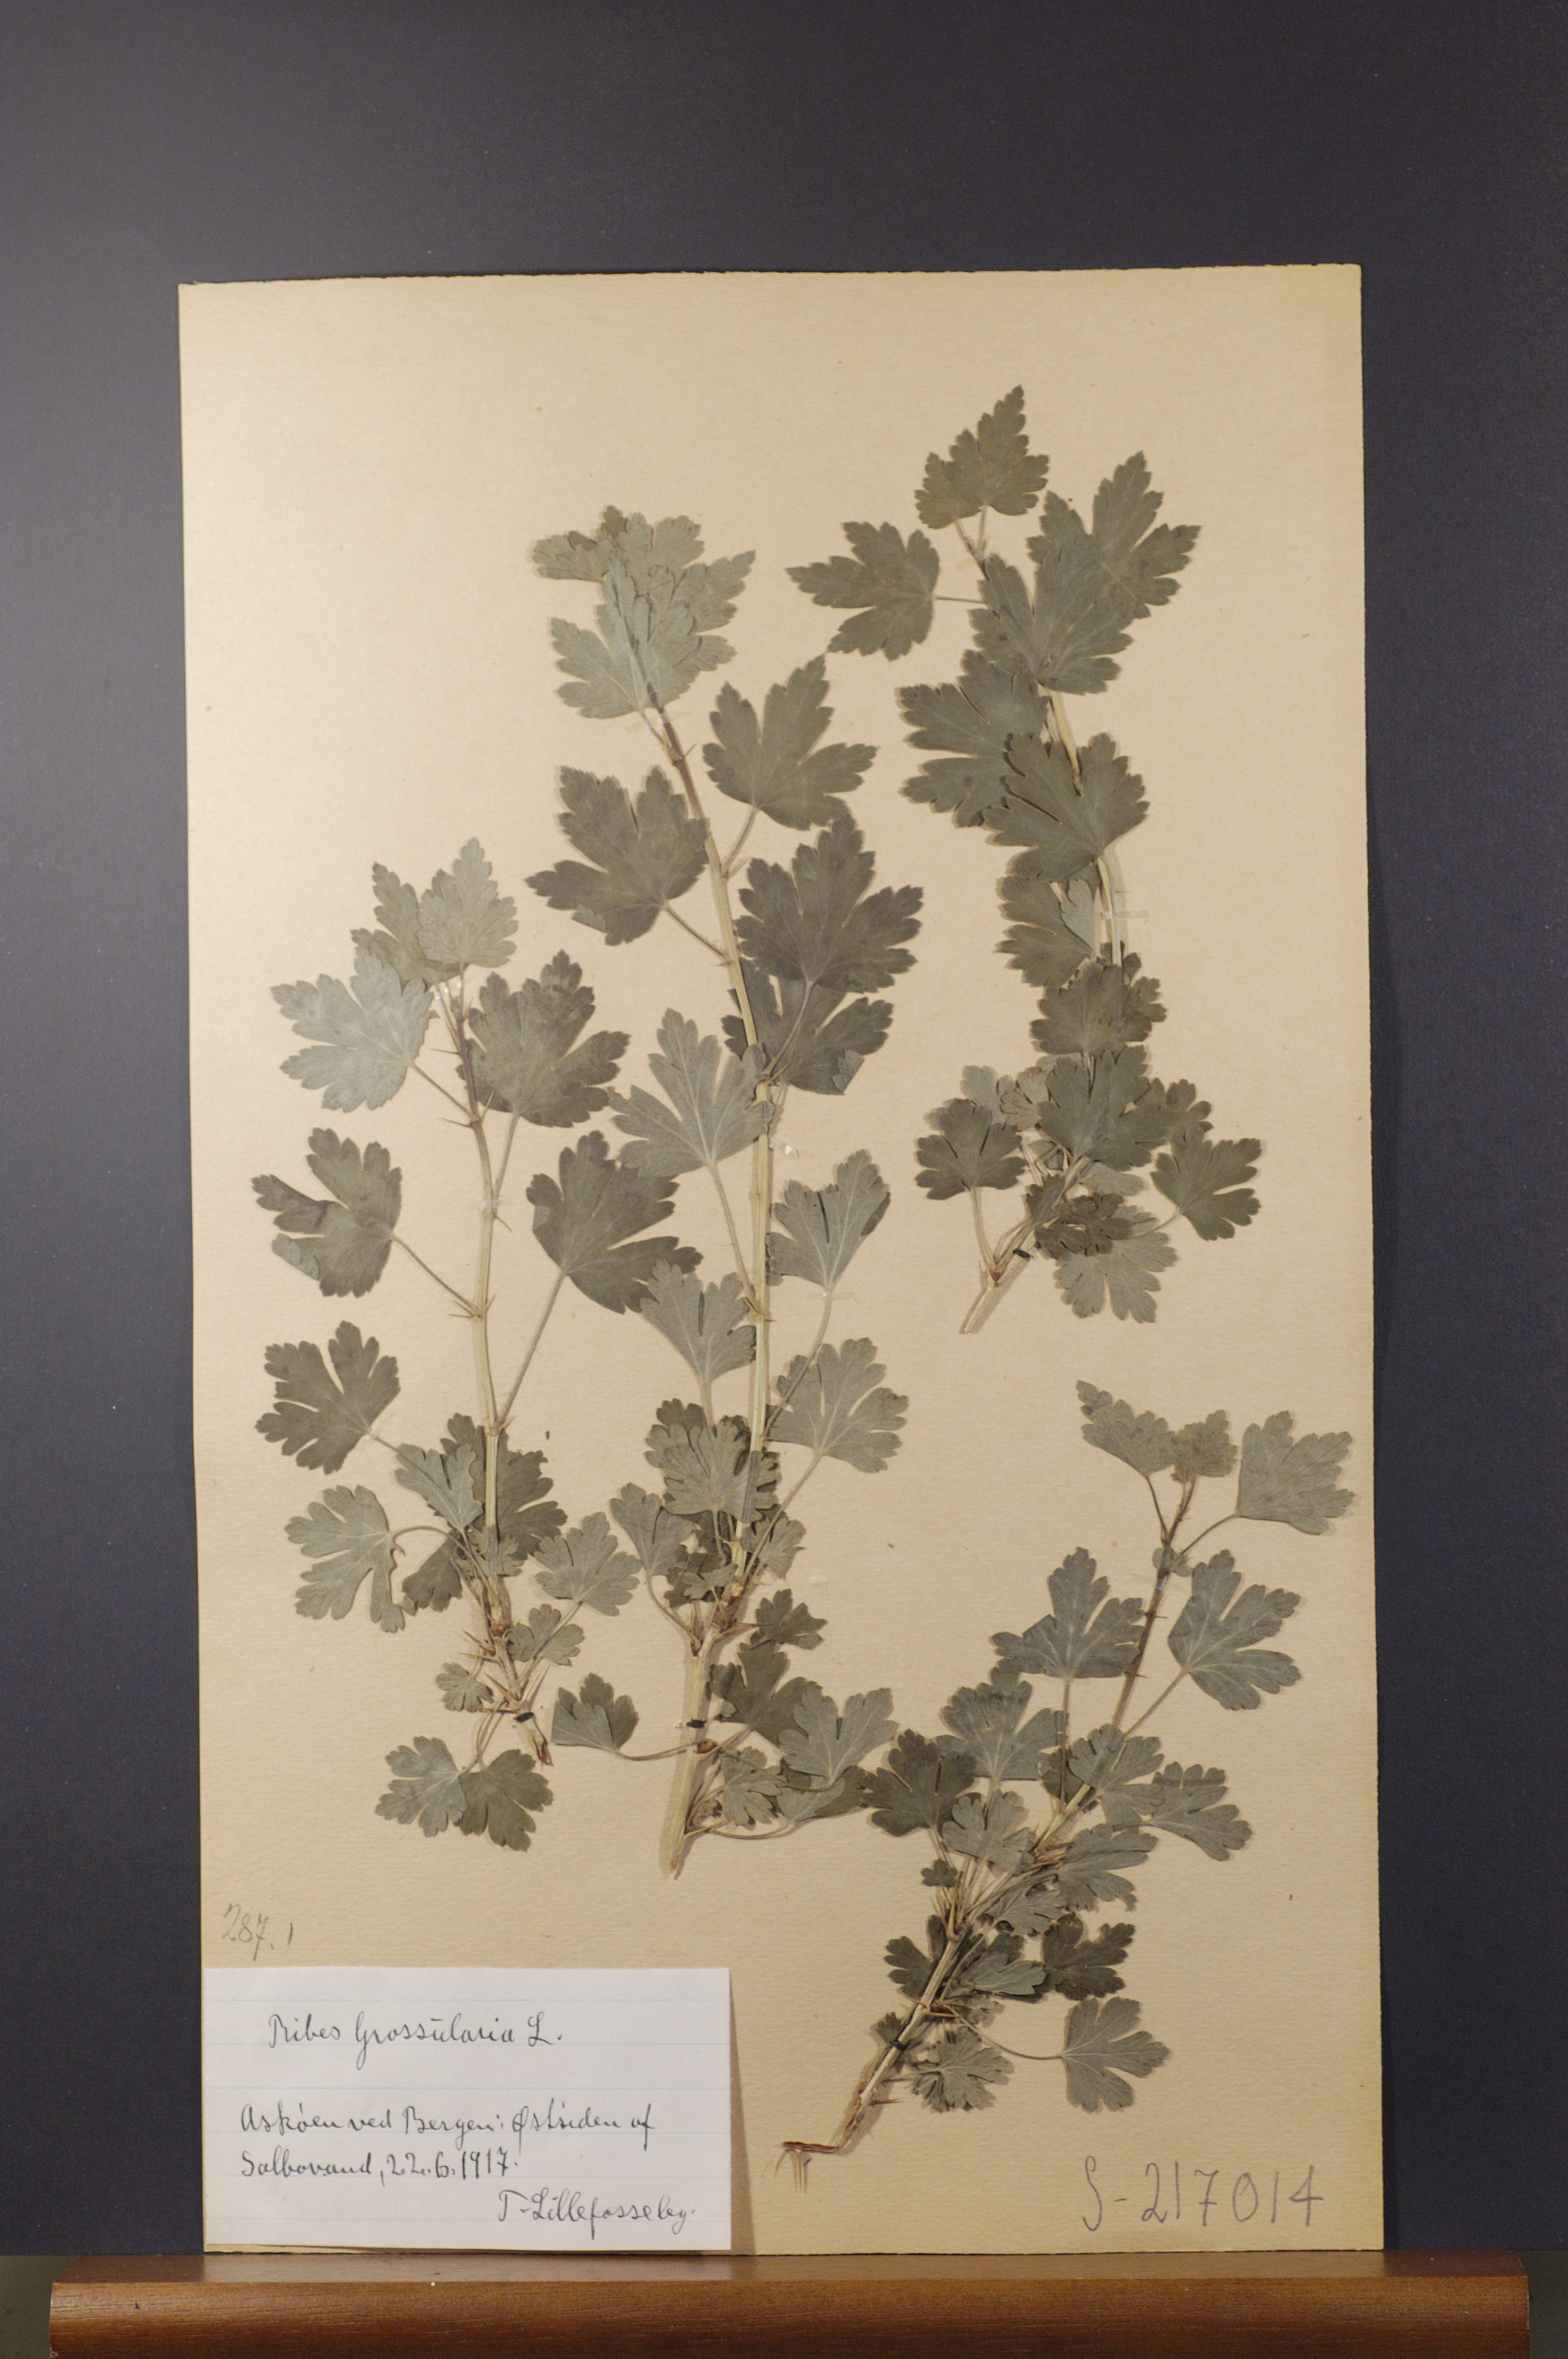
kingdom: Plantae
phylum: Tracheophyta
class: Magnoliopsida
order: Saxifragales
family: Grossulariaceae
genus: Ribes
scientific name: Ribes uva-crispa
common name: Gooseberry
